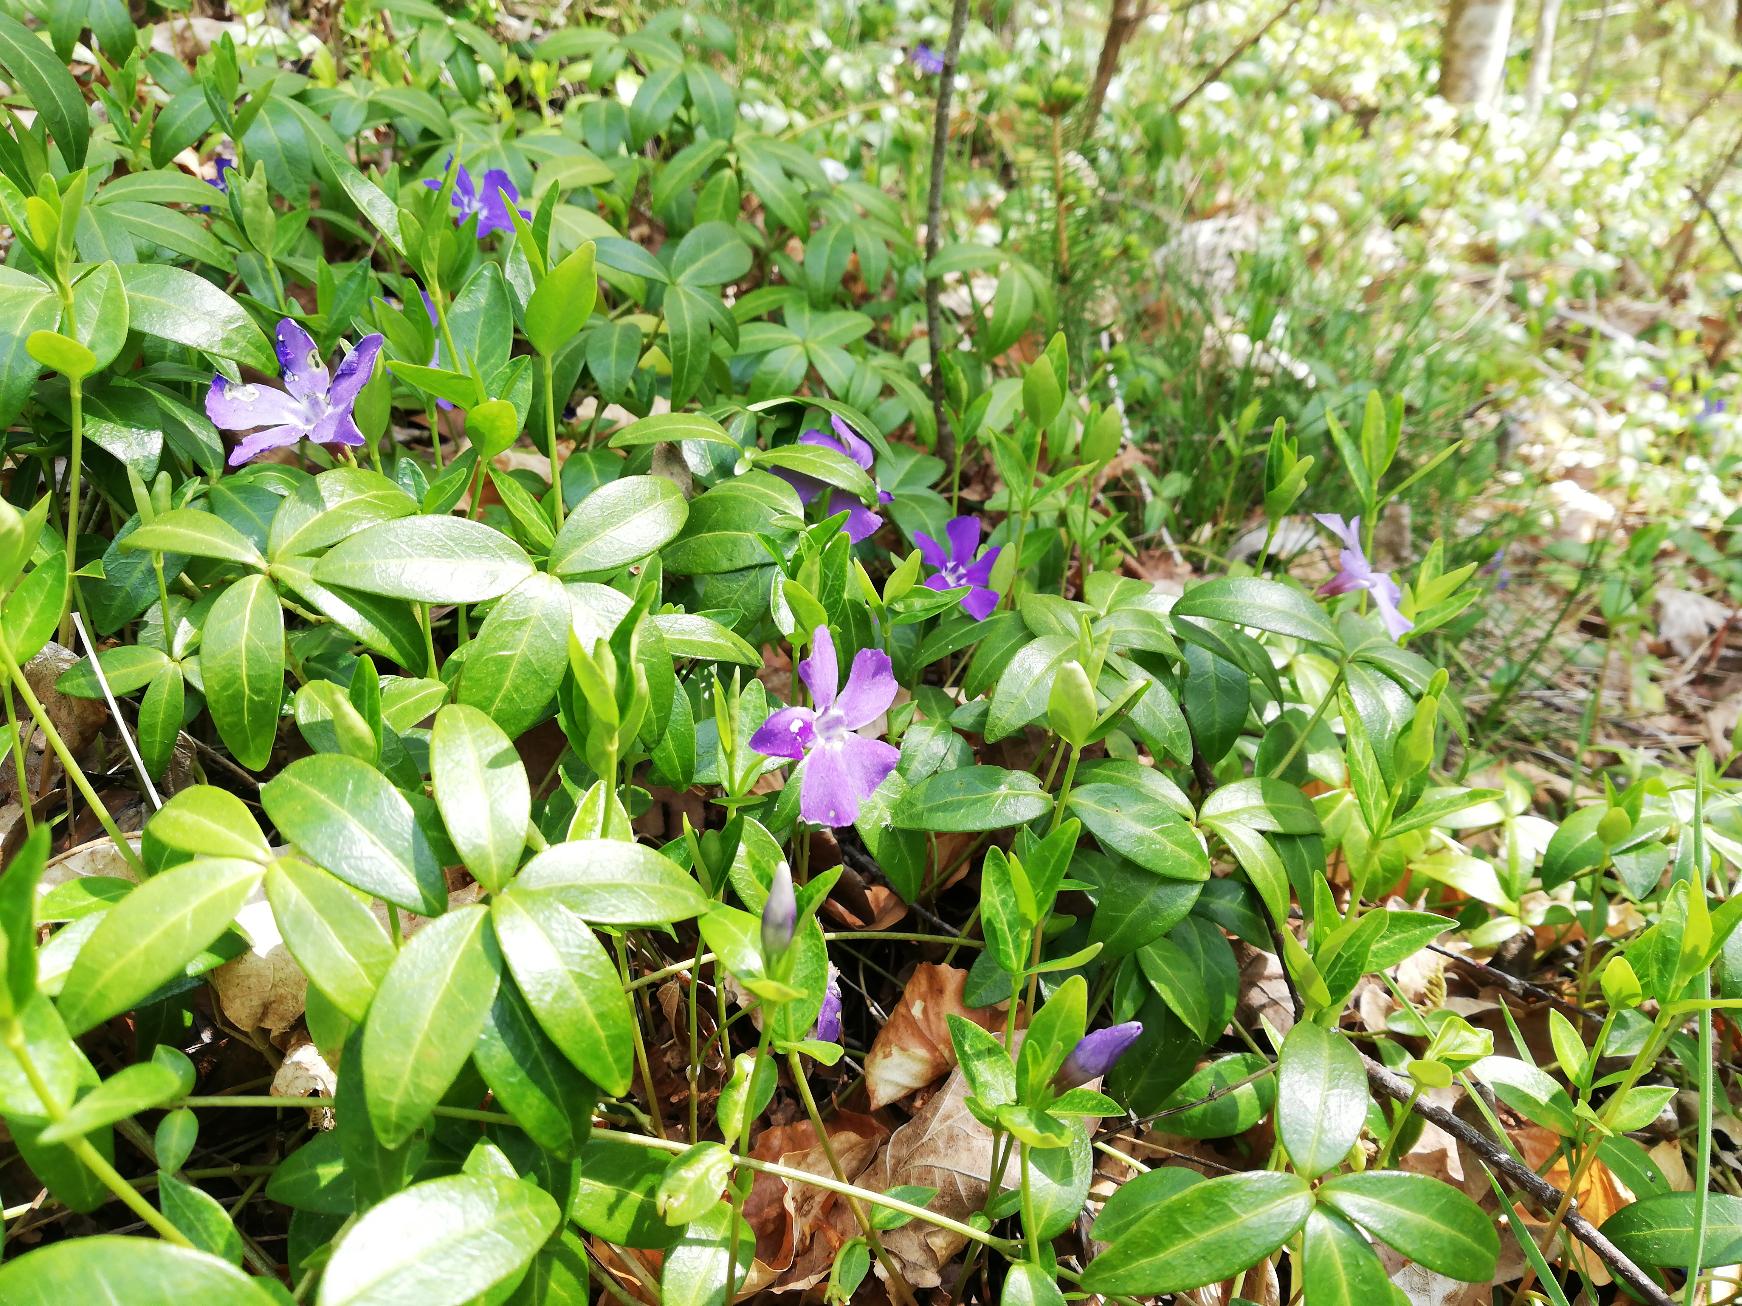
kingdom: Plantae
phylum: Tracheophyta
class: Magnoliopsida
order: Gentianales
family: Apocynaceae
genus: Vinca
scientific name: Vinca minor
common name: Liden singrøn
